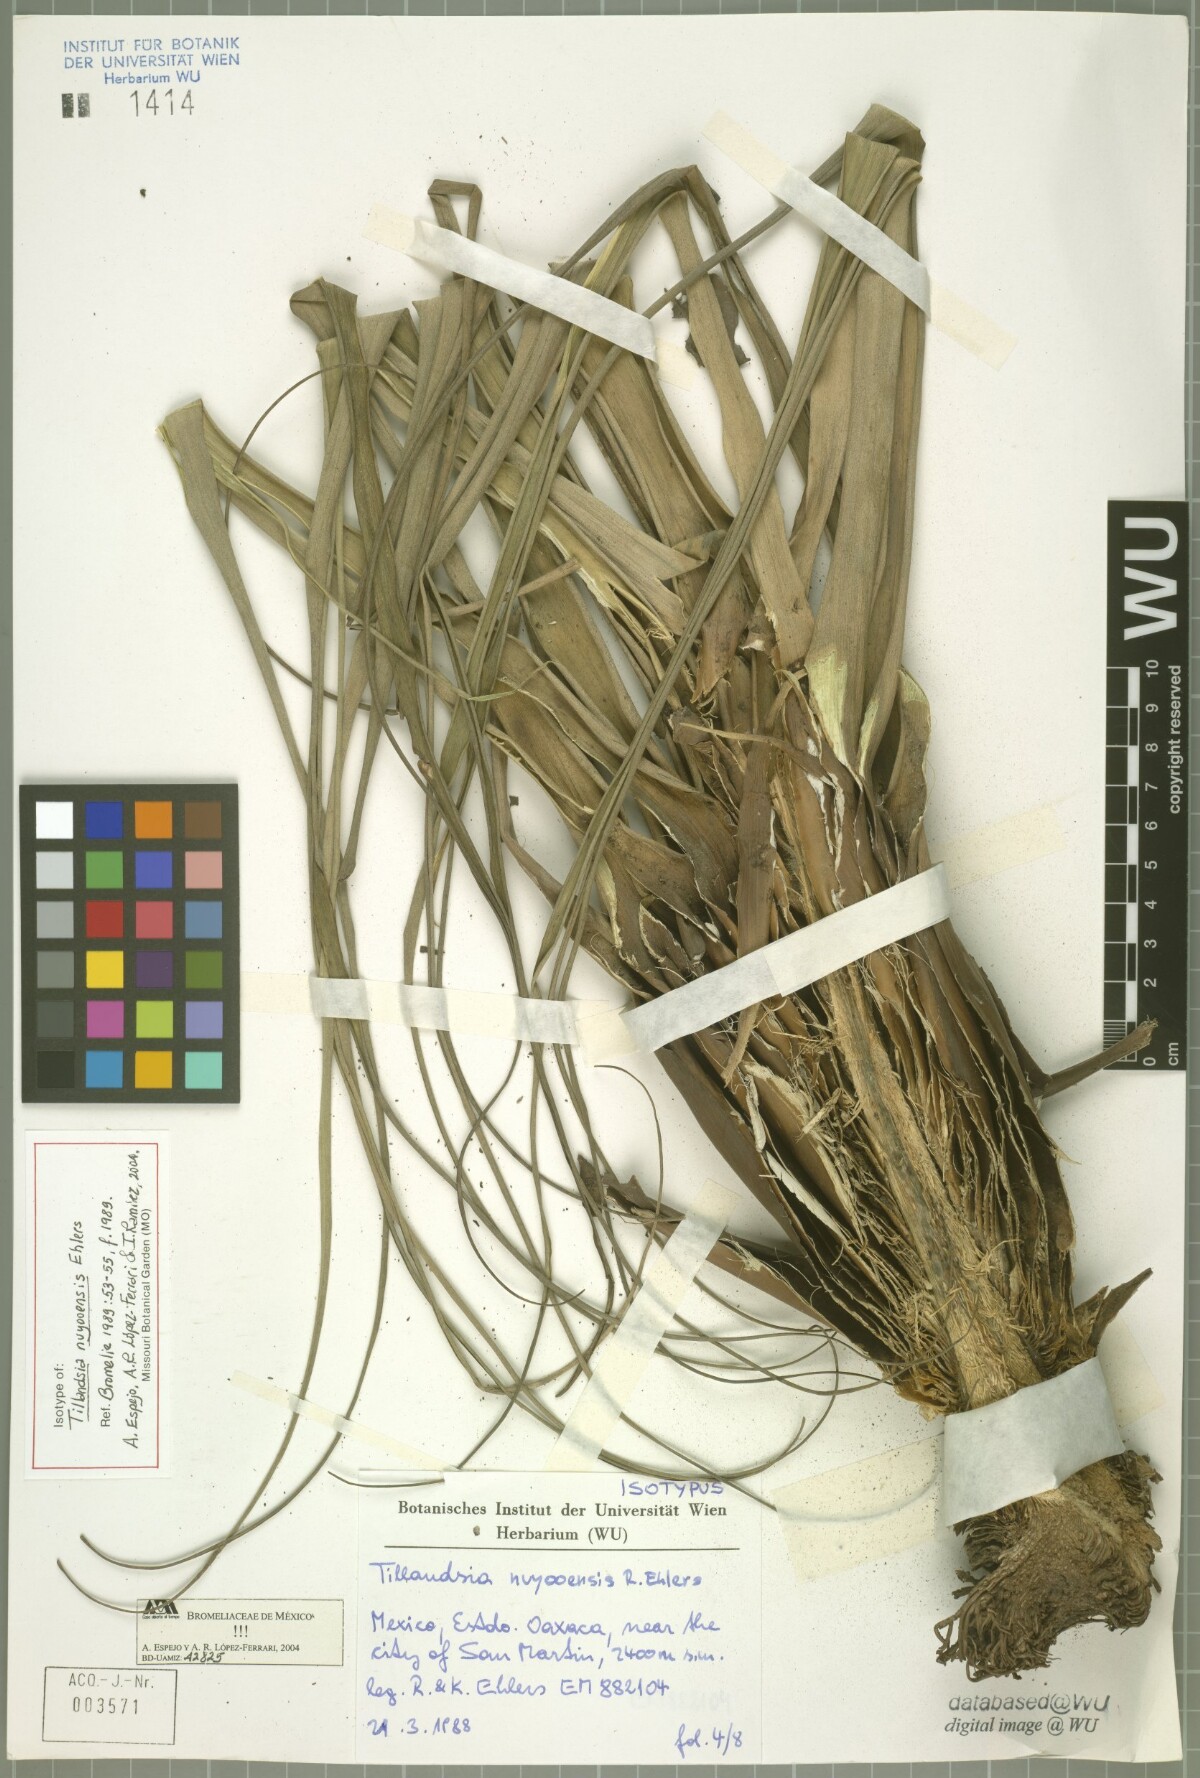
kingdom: Plantae
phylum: Tracheophyta
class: Liliopsida
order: Poales
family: Bromeliaceae
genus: Tillandsia
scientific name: Tillandsia nuyooensis
